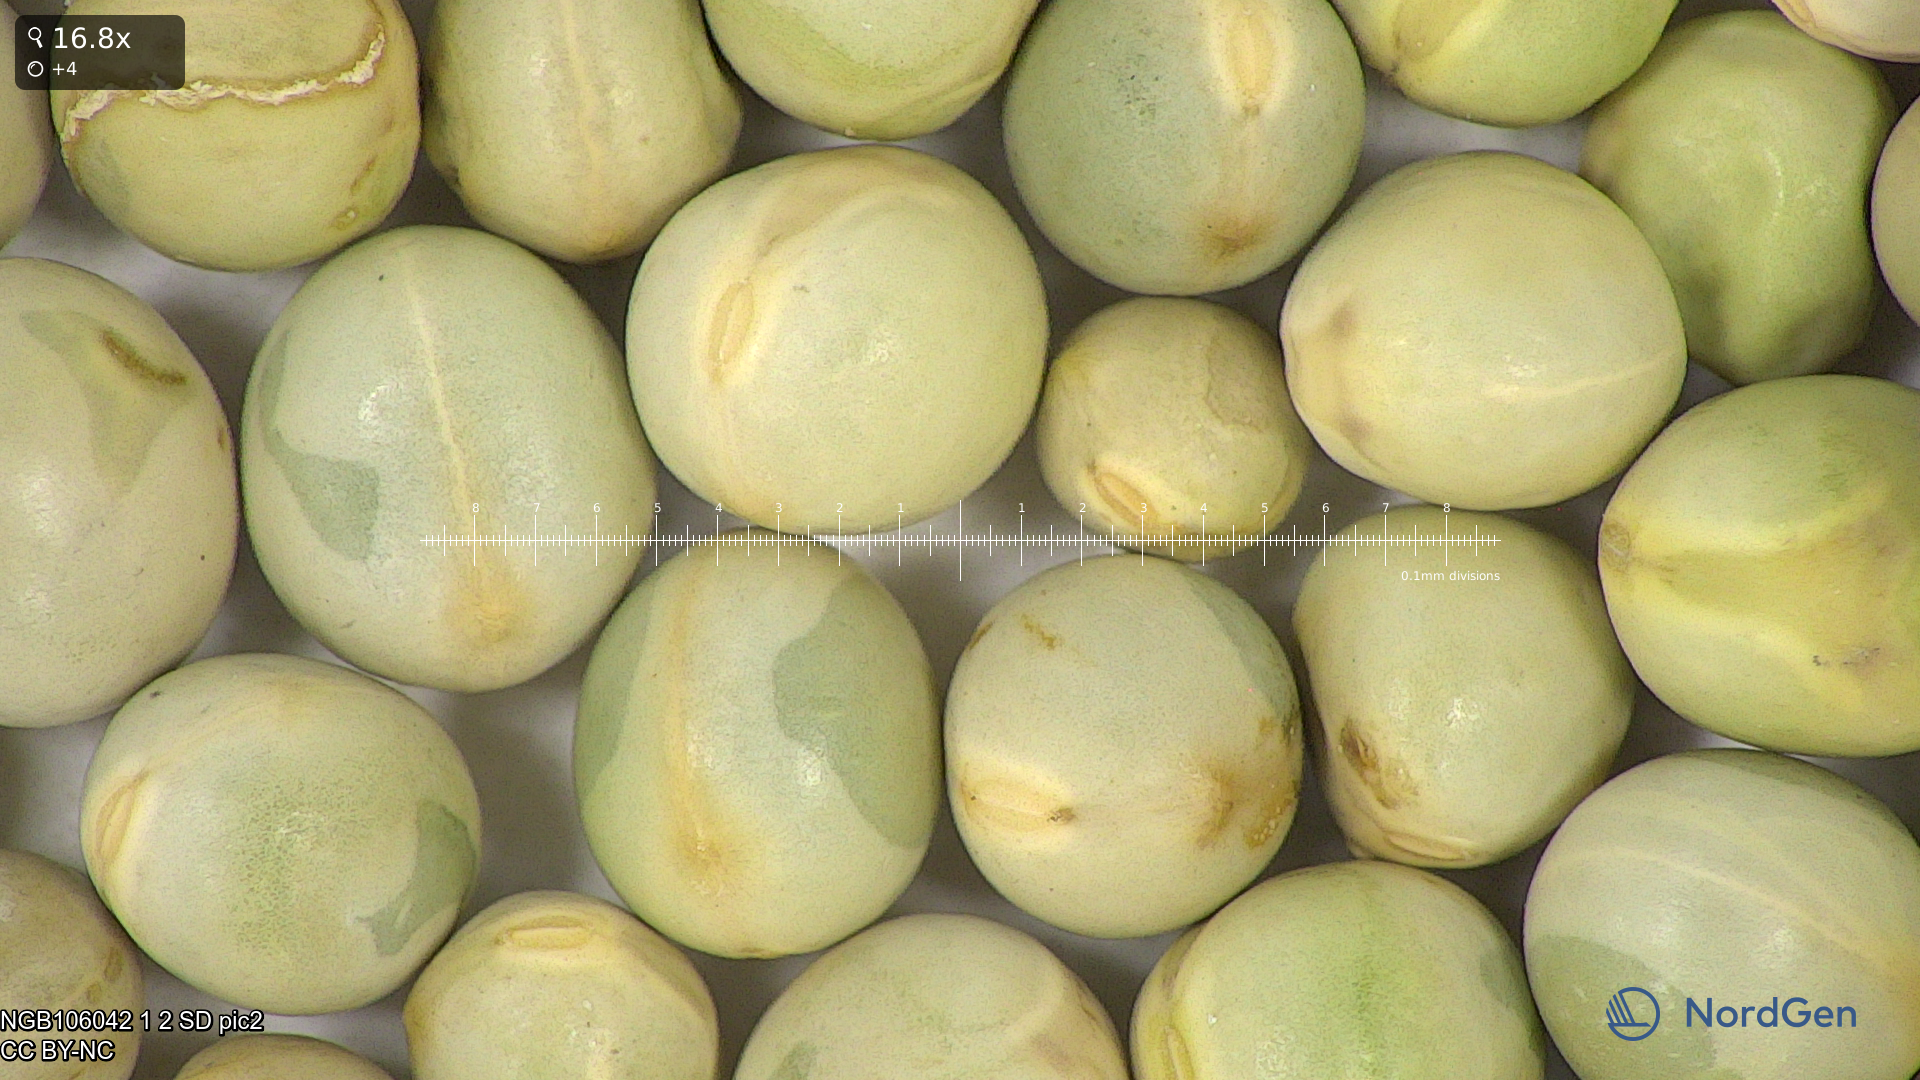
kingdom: Plantae
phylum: Tracheophyta
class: Magnoliopsida
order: Fabales
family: Fabaceae
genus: Lathyrus
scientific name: Lathyrus oleraceus
